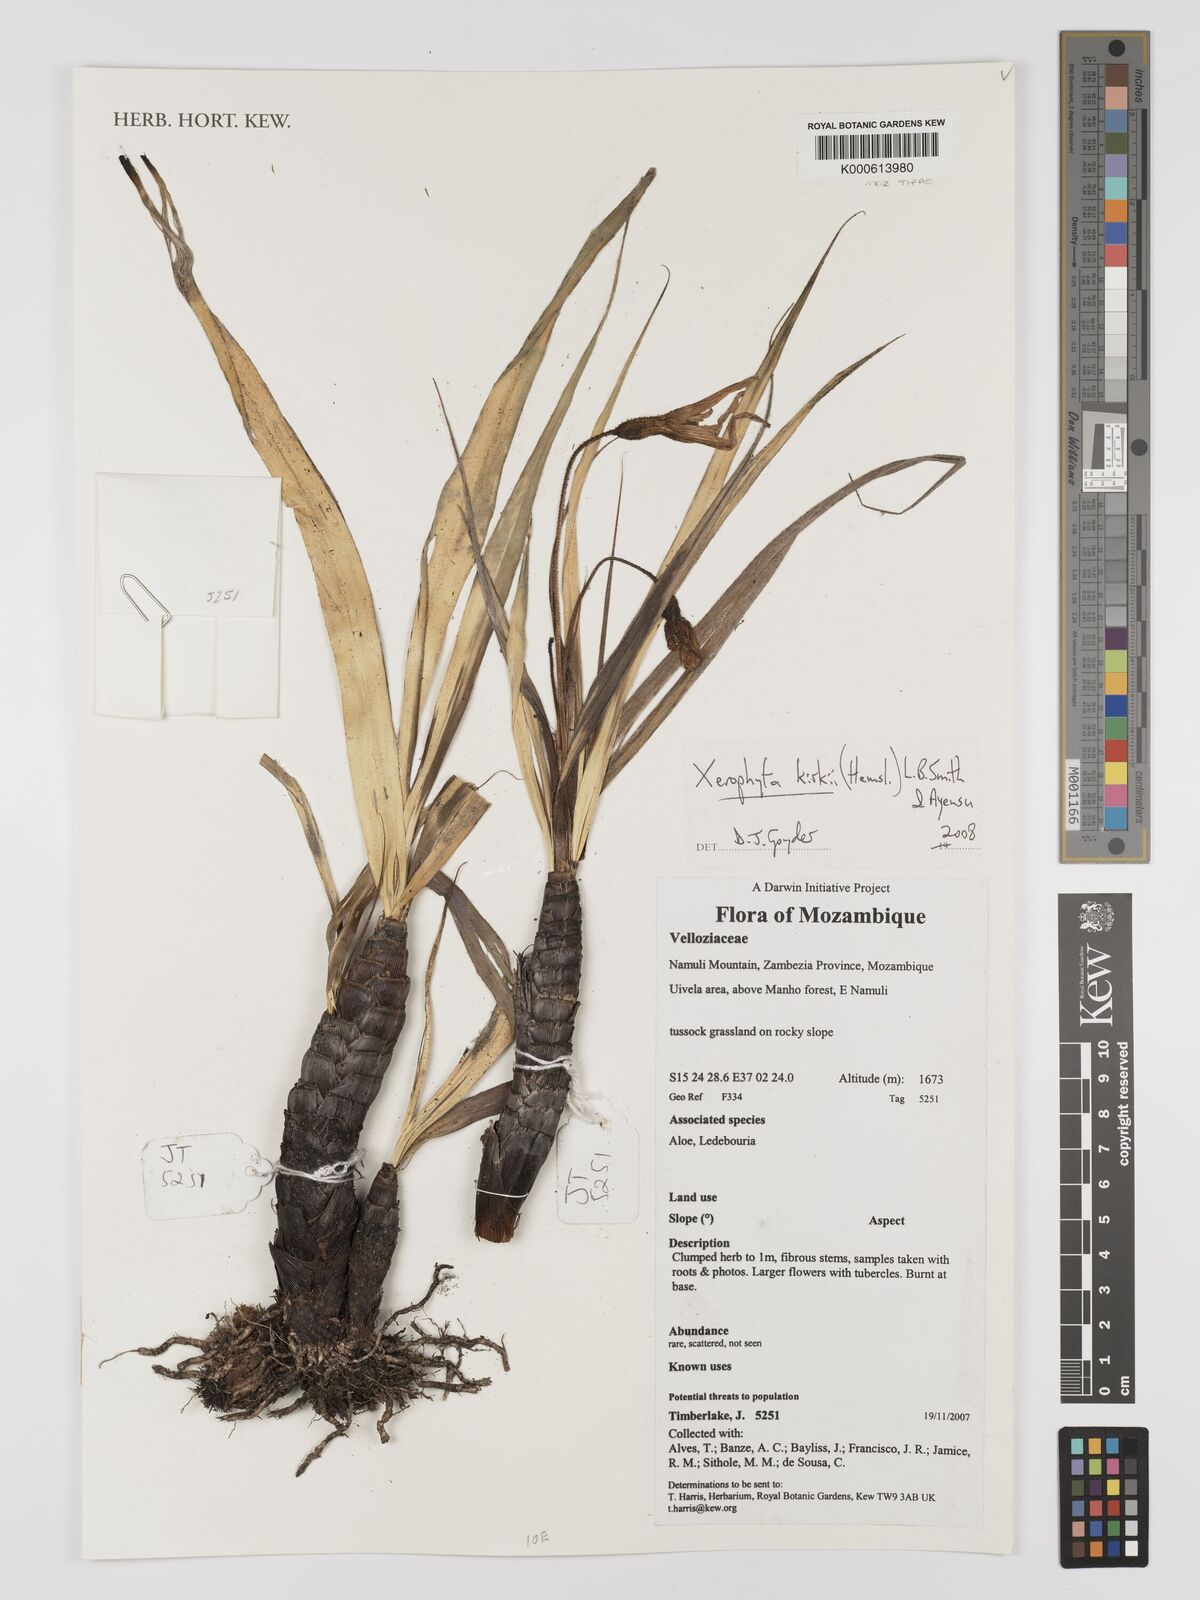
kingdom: Plantae
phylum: Tracheophyta
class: Liliopsida
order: Pandanales
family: Velloziaceae
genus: Xerophyta
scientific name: Xerophyta
